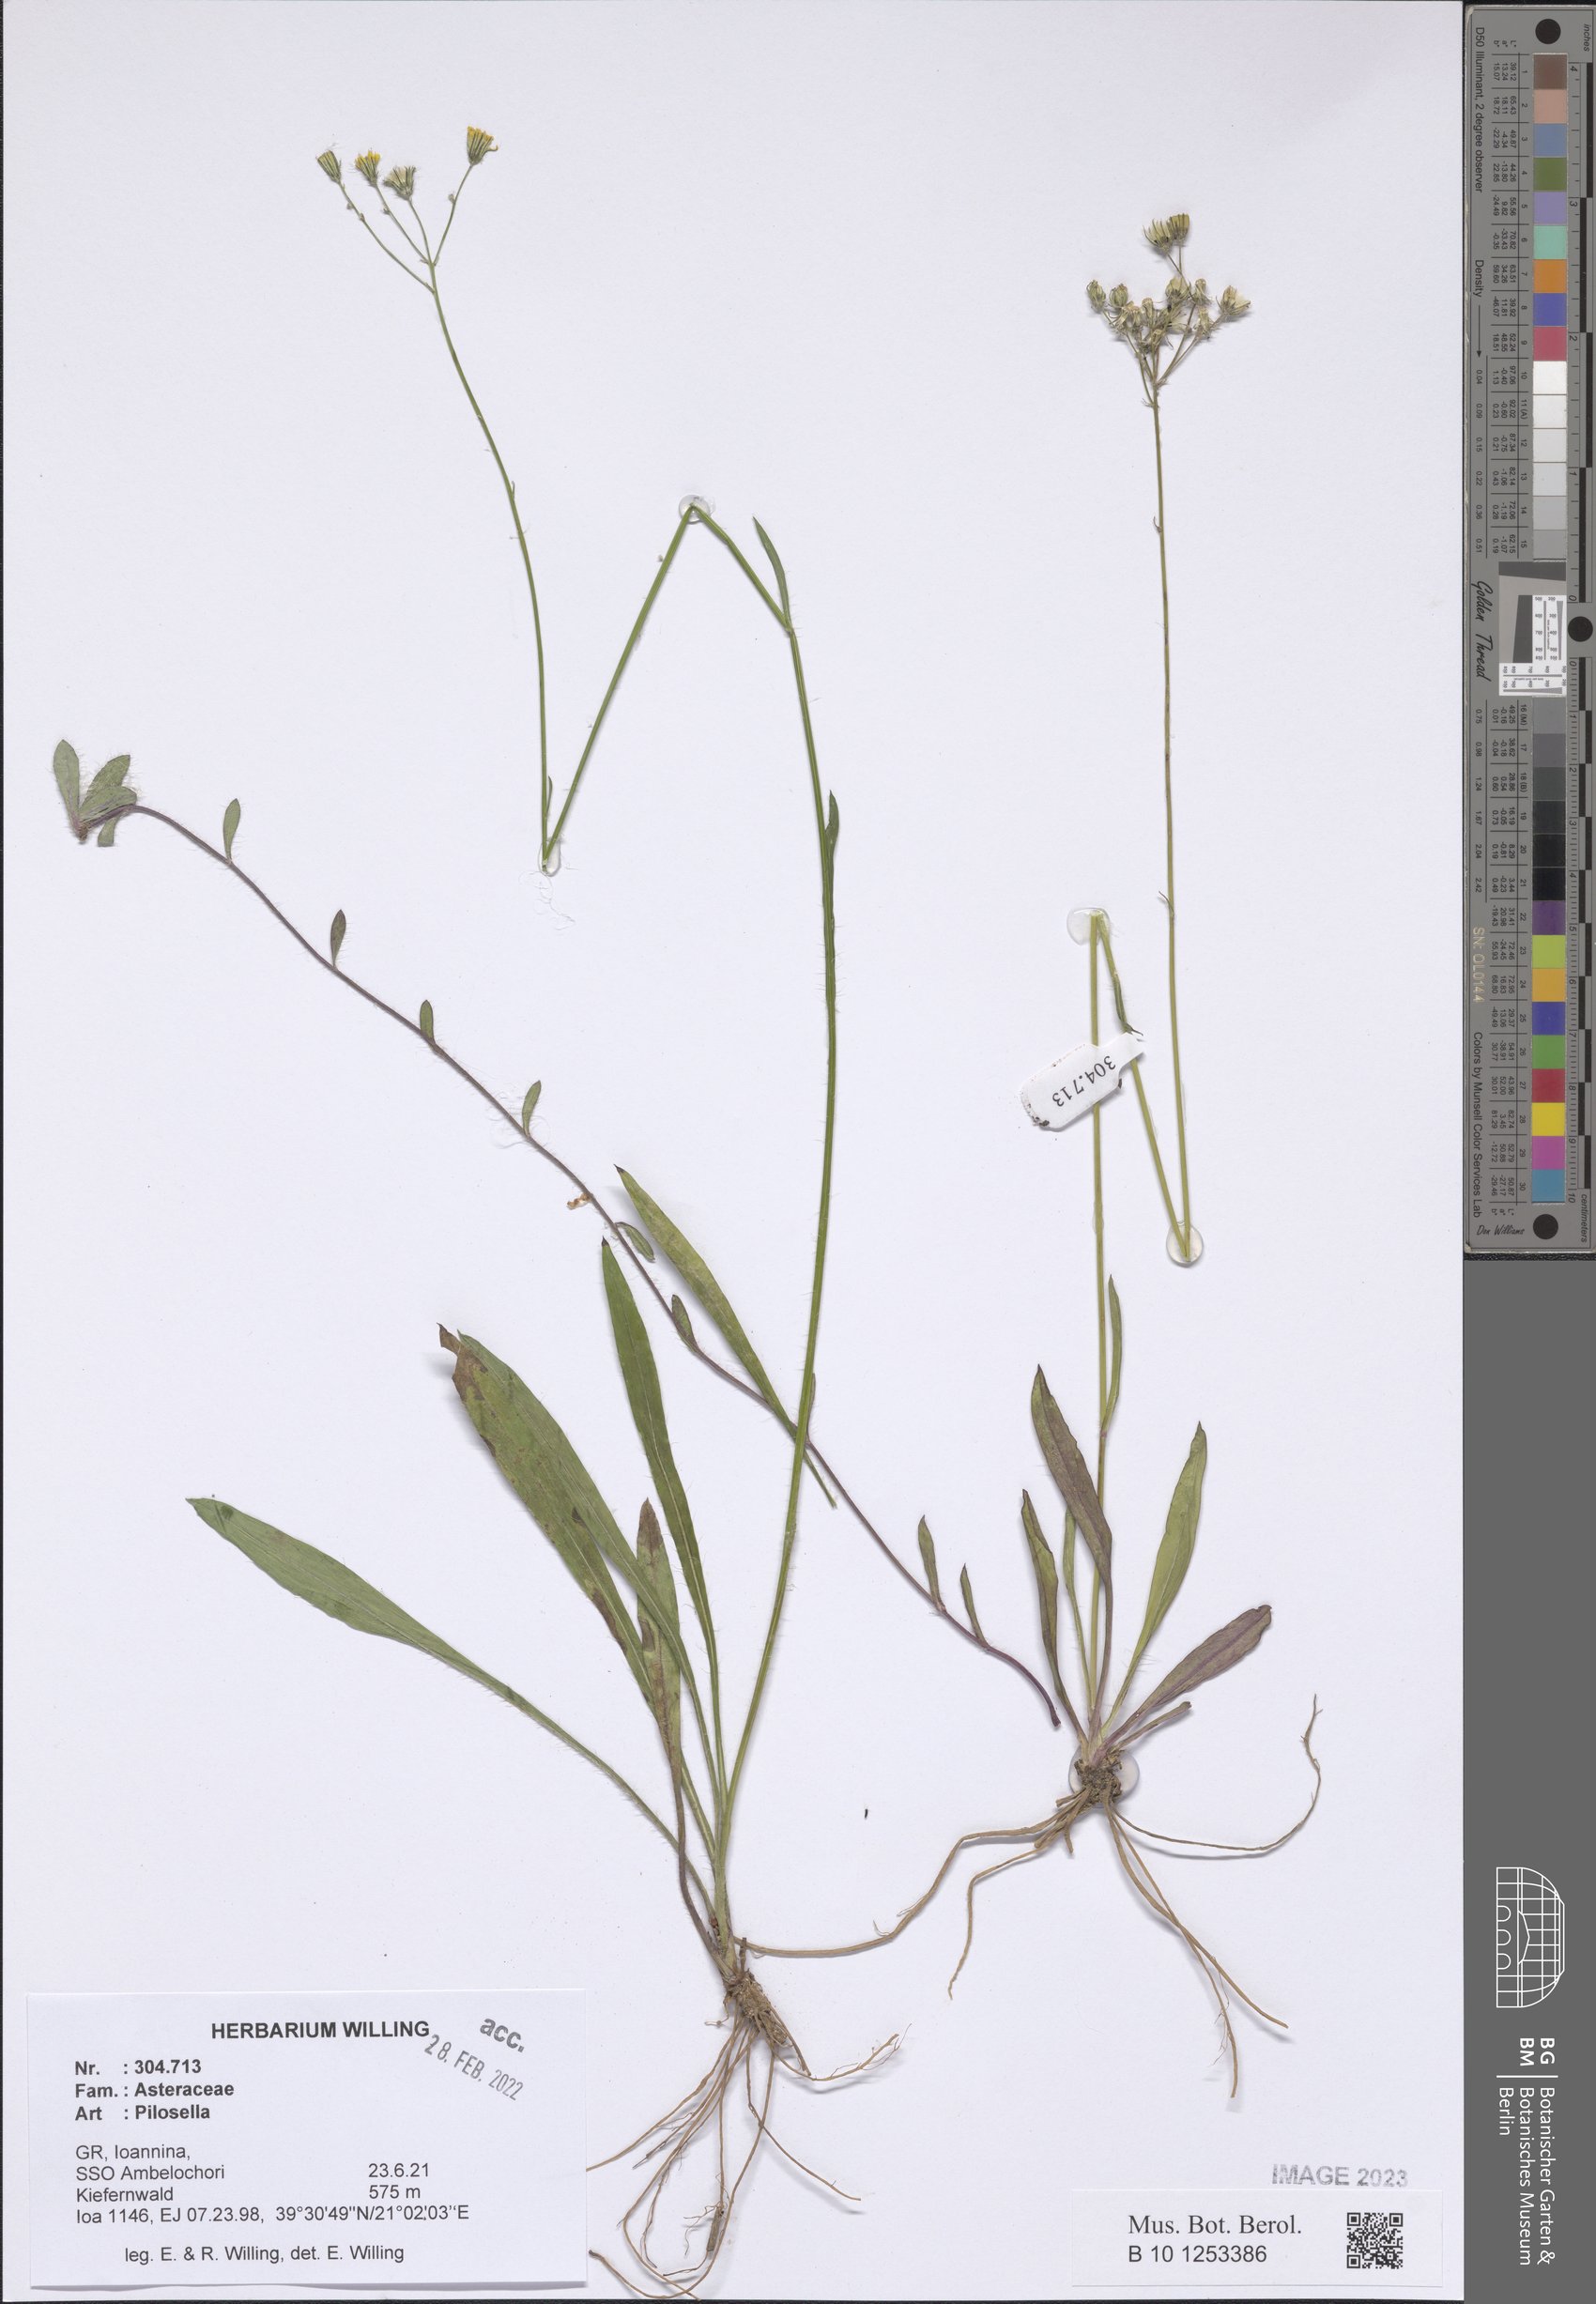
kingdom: Plantae
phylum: Tracheophyta
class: Magnoliopsida
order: Asterales
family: Asteraceae
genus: Pilosella
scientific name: Pilosella
